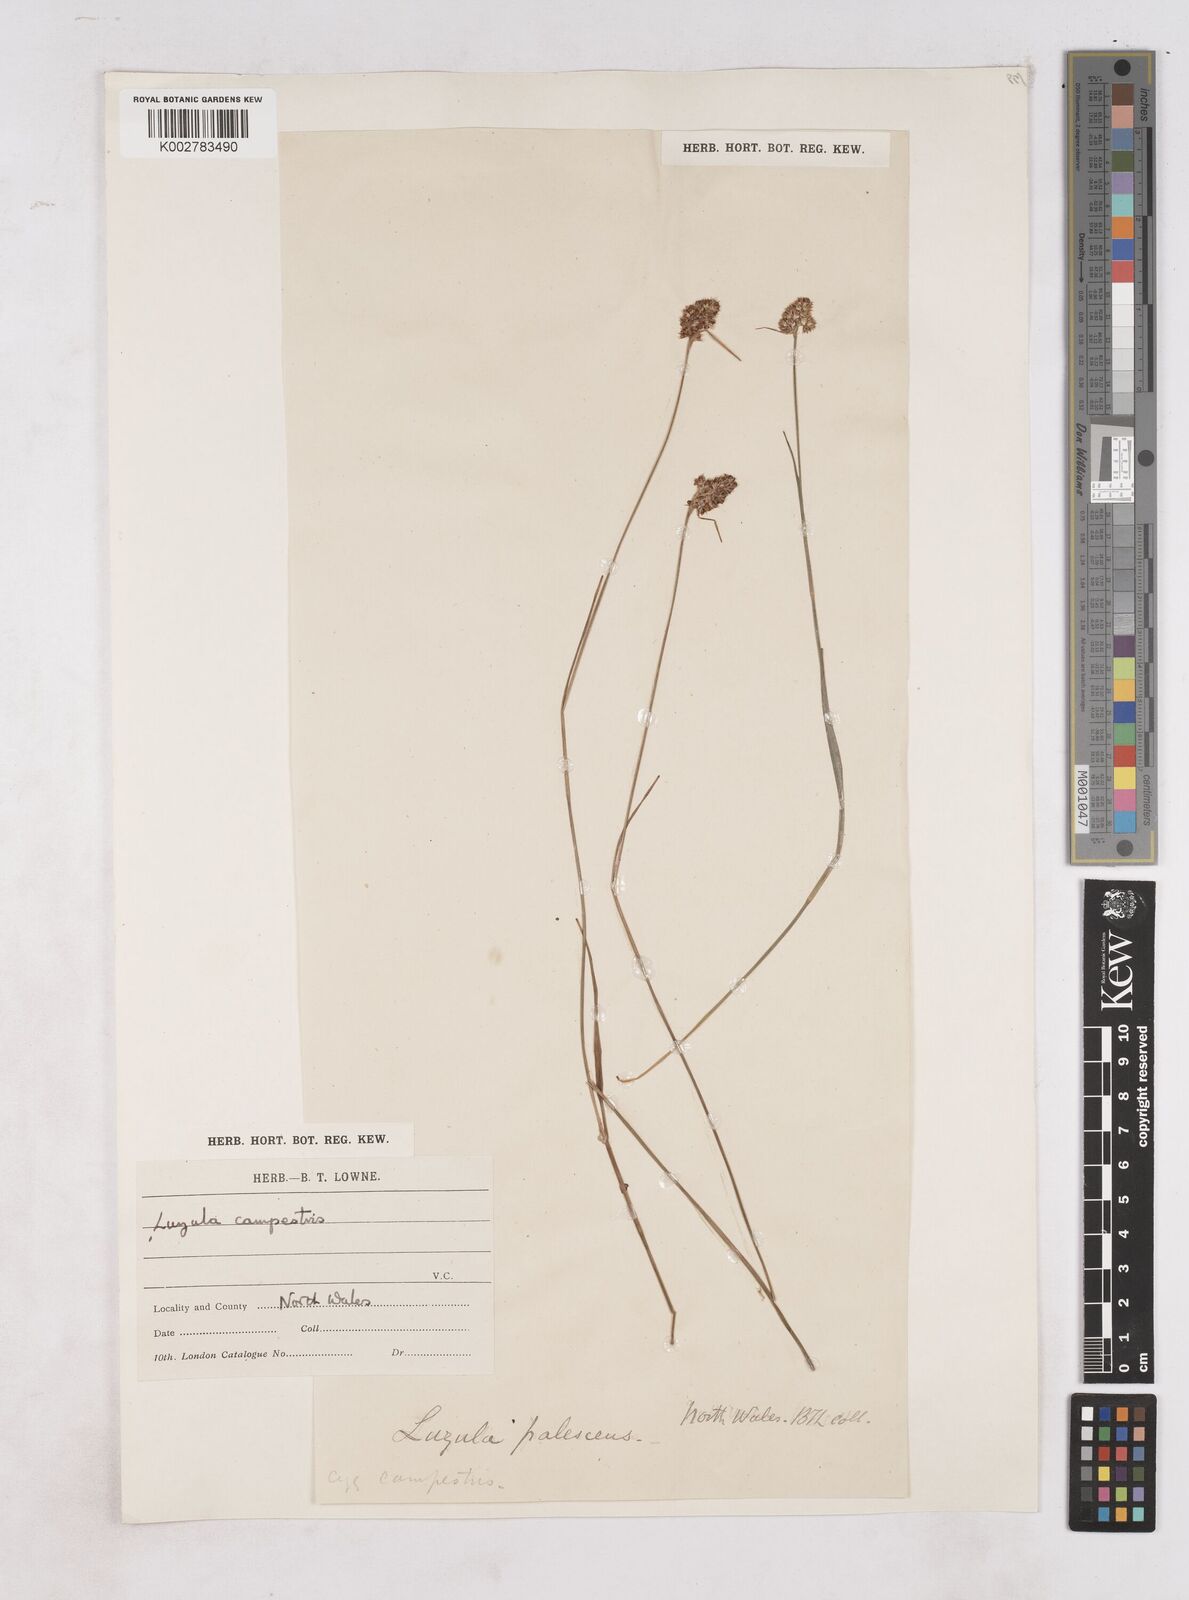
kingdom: Plantae
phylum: Tracheophyta
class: Liliopsida
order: Poales
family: Juncaceae
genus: Luzula
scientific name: Luzula campestris
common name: Field wood-rush
